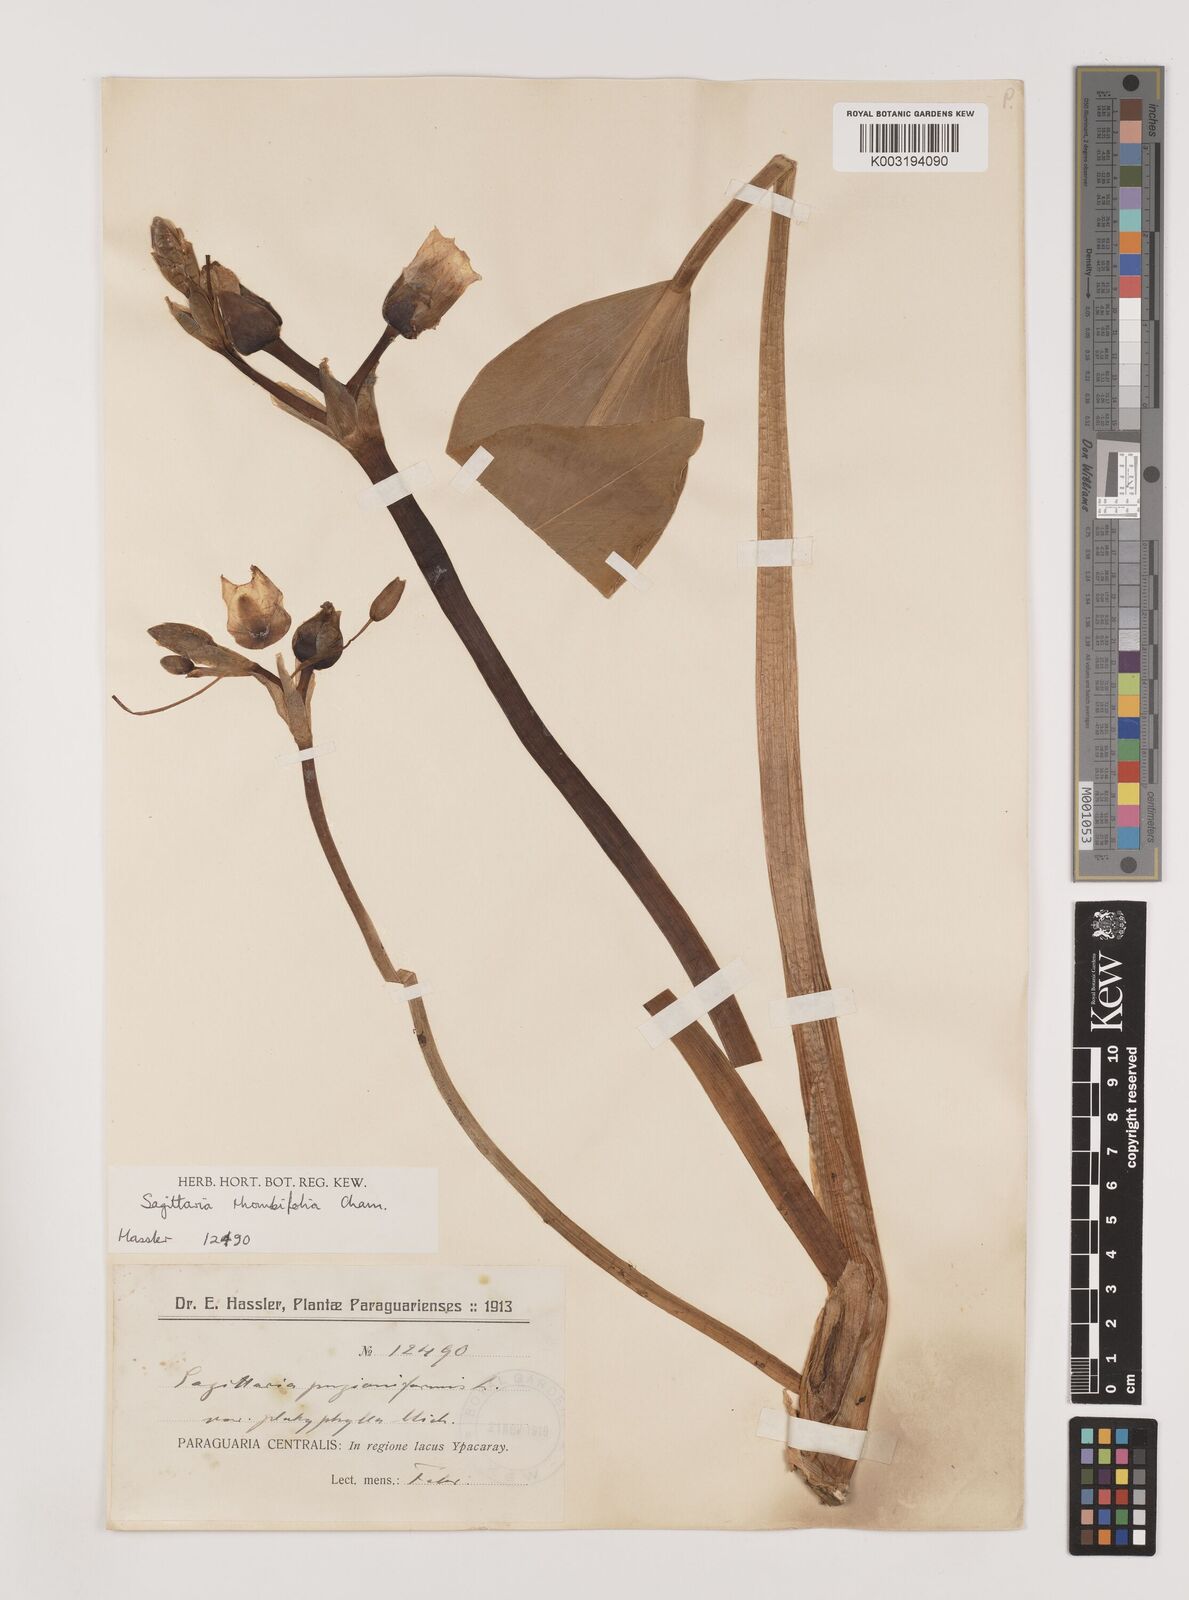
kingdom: Plantae
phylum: Tracheophyta
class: Liliopsida
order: Alismatales
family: Alismataceae
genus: Sagittaria
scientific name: Sagittaria rhombifolia
